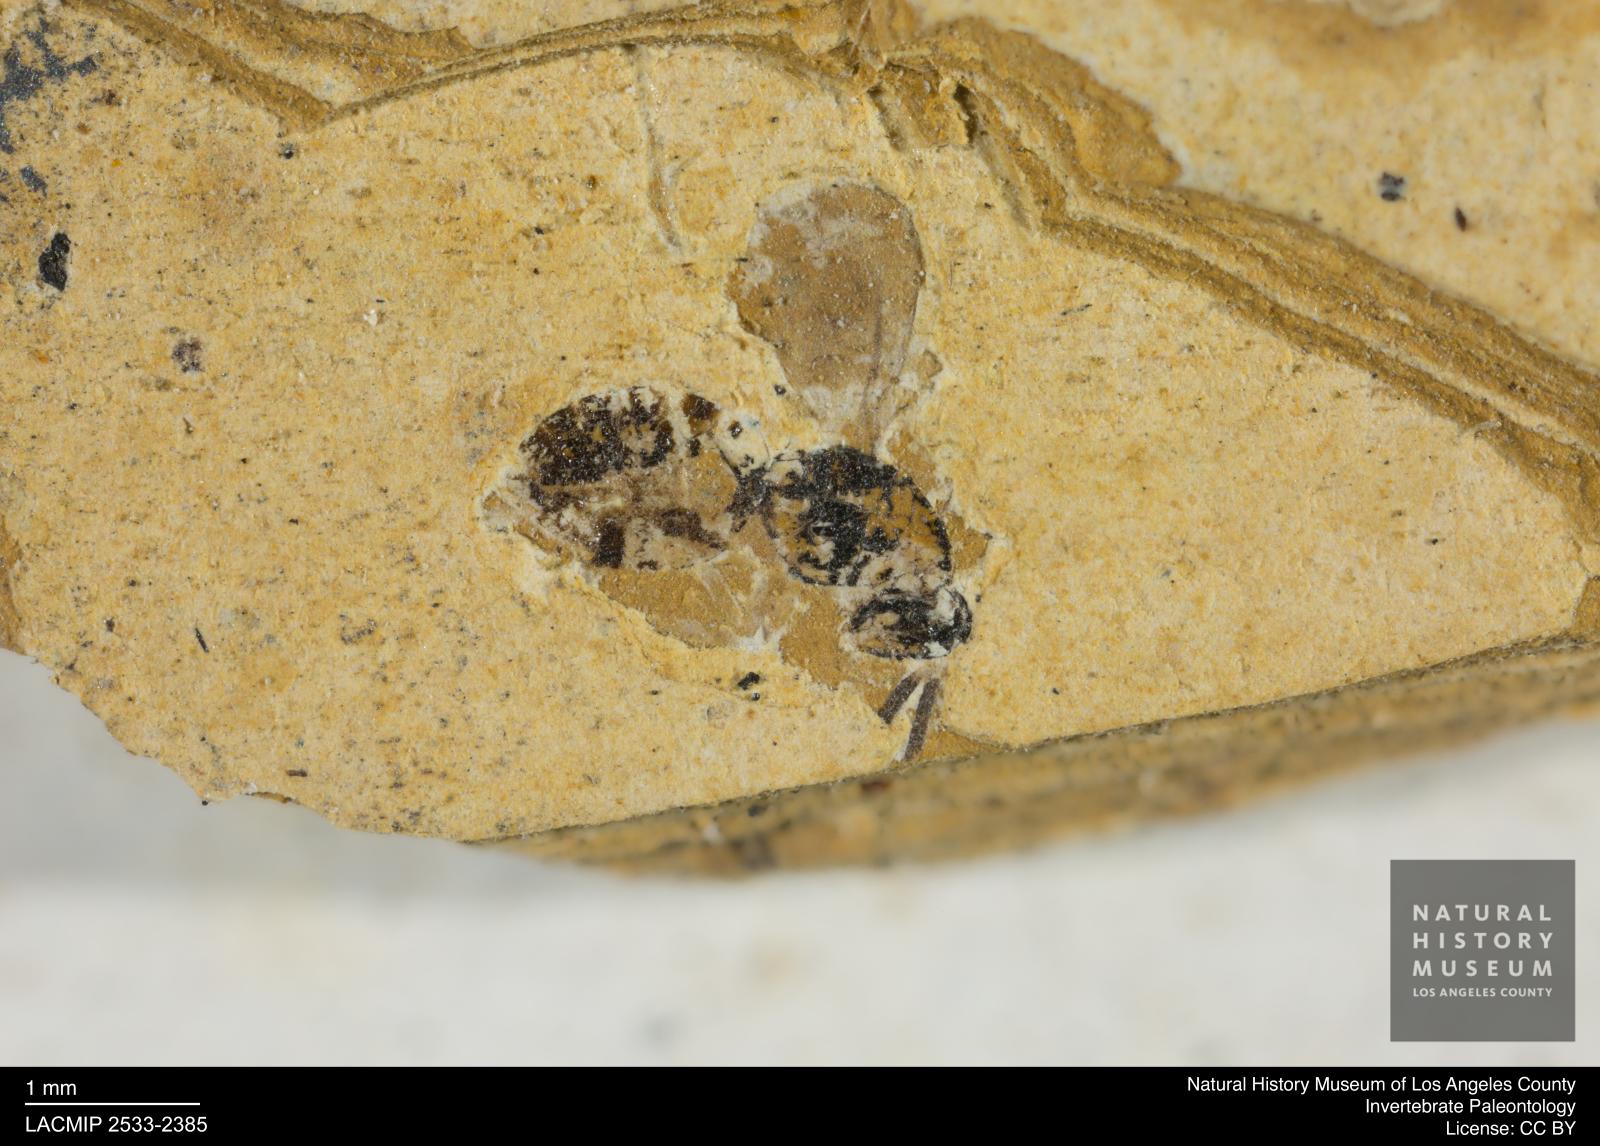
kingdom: Animalia
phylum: Arthropoda
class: Insecta
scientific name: Insecta
